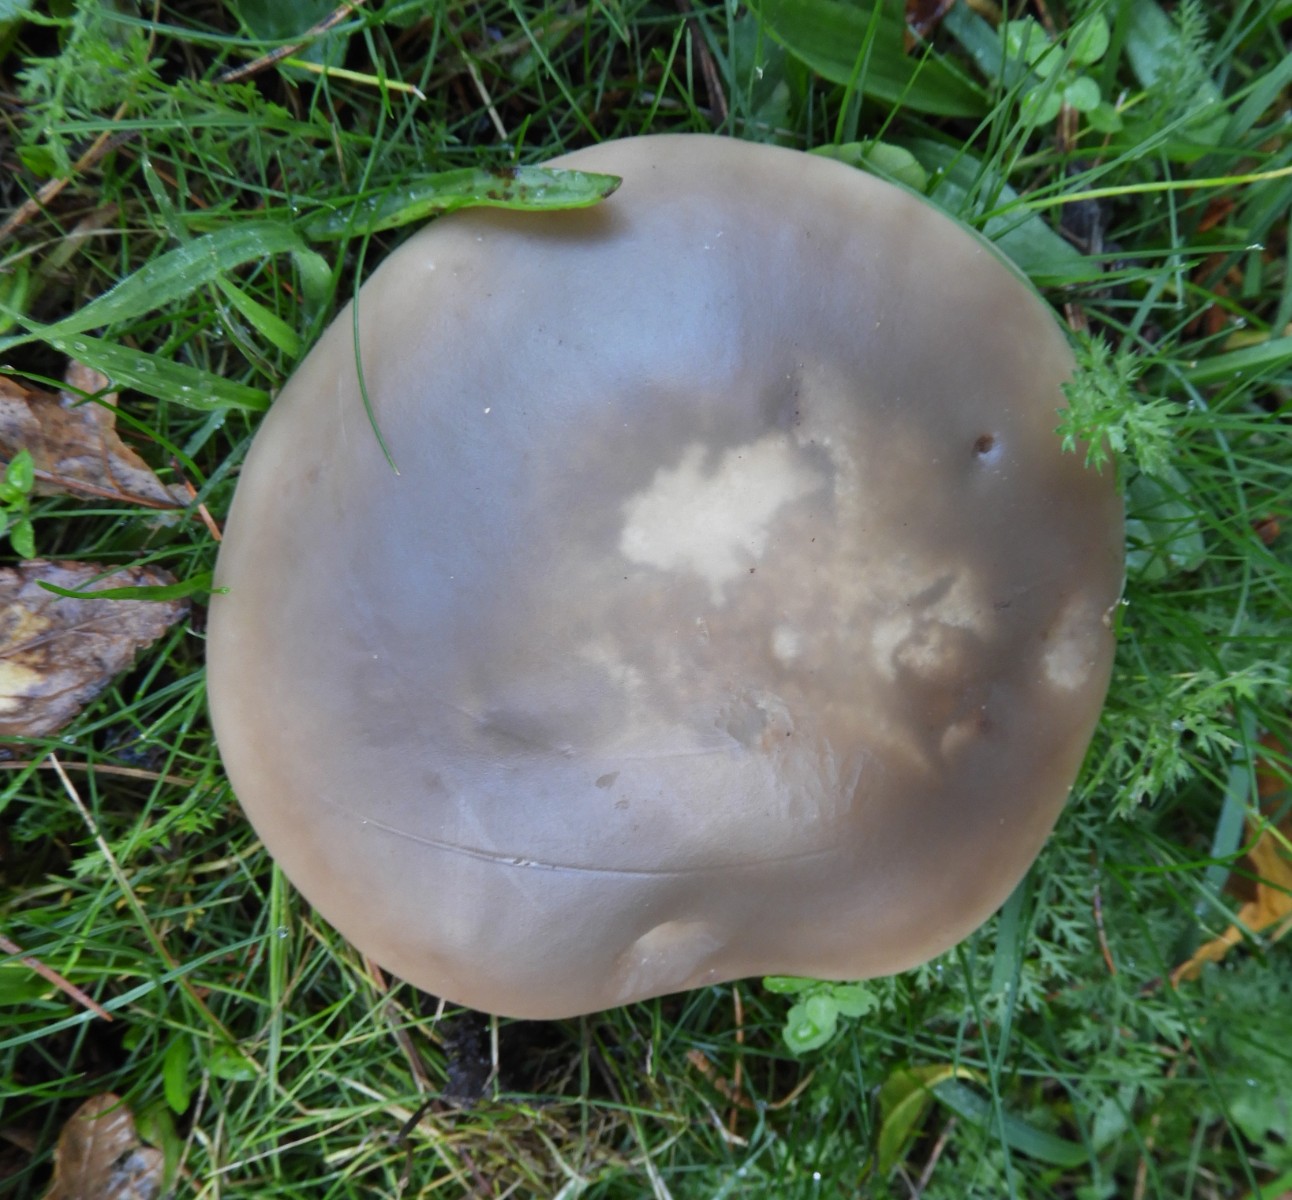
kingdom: Fungi
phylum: Basidiomycota
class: Agaricomycetes
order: Agaricales
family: Tricholomataceae
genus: Lepista
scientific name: Lepista personata
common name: bleg hekseringshat
